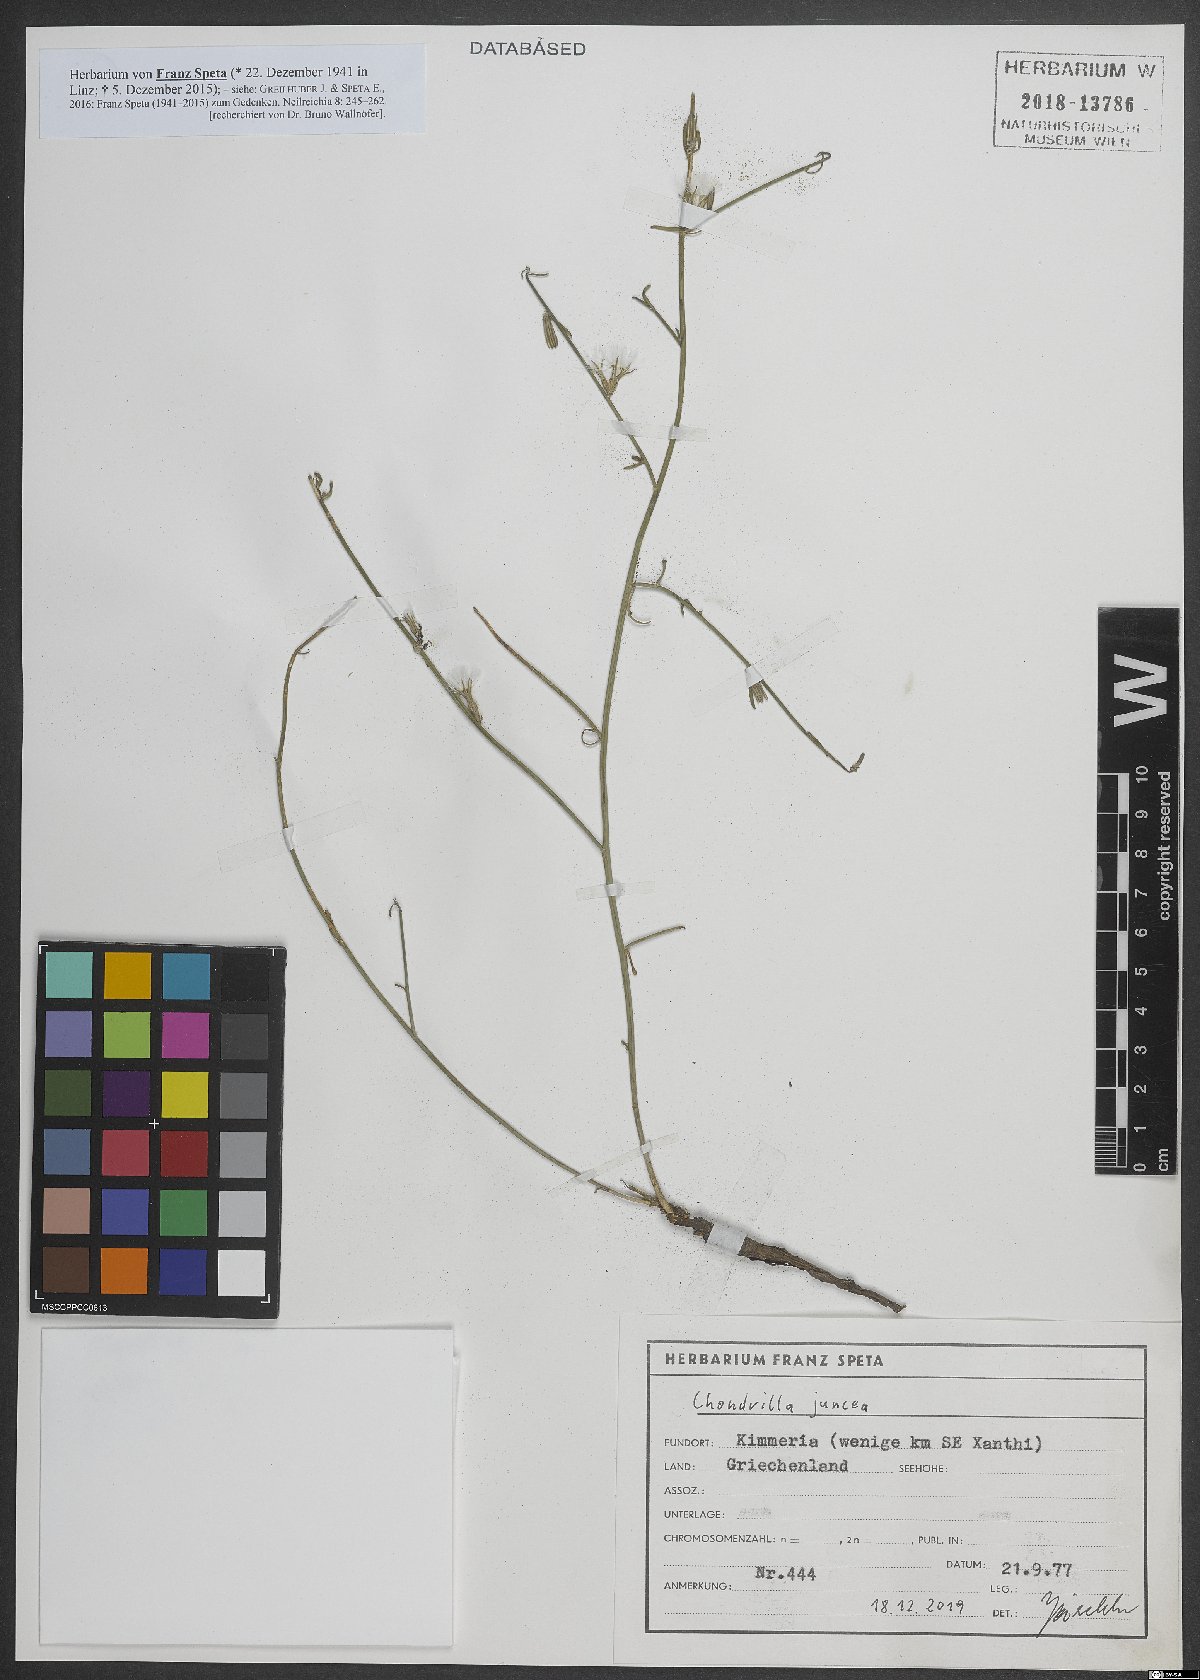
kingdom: Plantae
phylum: Tracheophyta
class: Magnoliopsida
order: Asterales
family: Asteraceae
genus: Chondrilla
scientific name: Chondrilla juncea
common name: Skeleton weed
